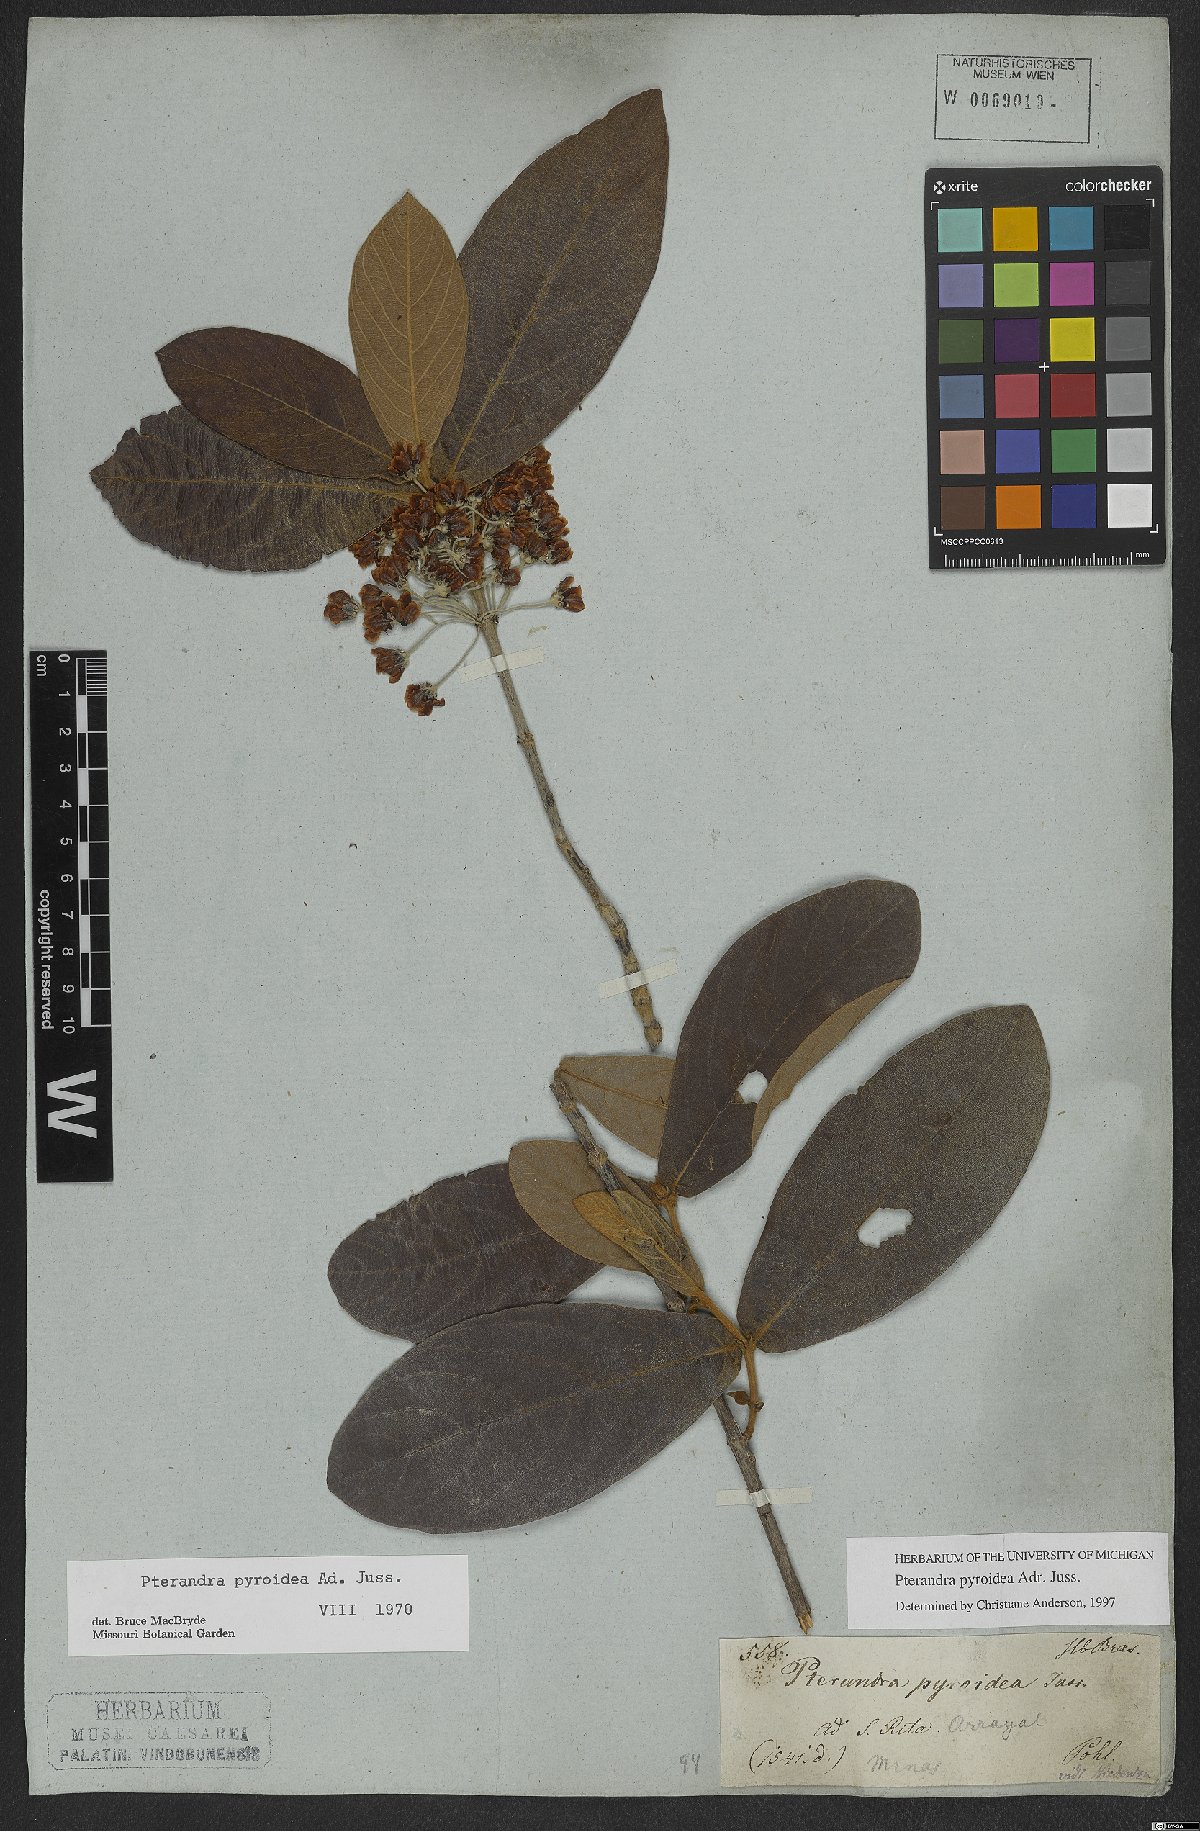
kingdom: Plantae
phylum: Tracheophyta
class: Magnoliopsida
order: Malpighiales
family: Malpighiaceae
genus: Pterandra
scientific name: Pterandra pyroidea
